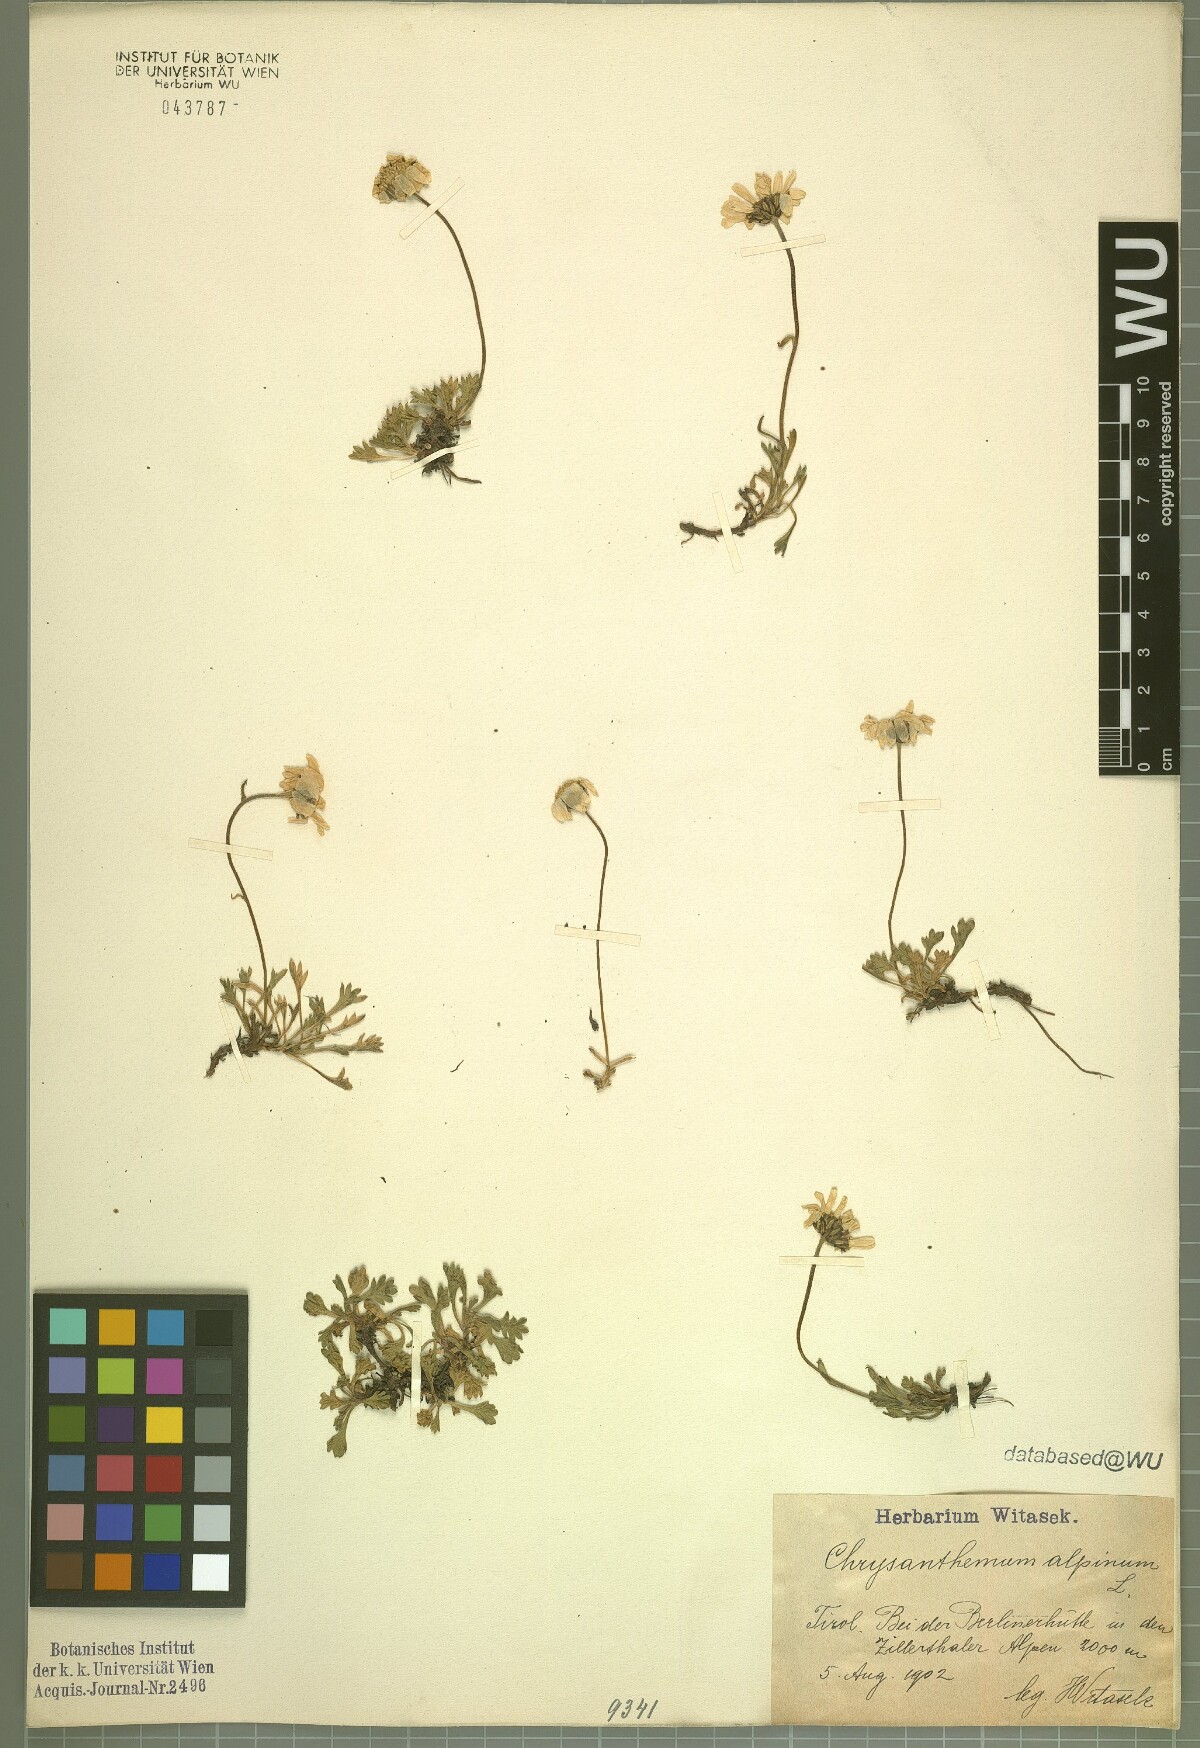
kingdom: Plantae
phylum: Tracheophyta
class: Magnoliopsida
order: Asterales
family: Asteraceae
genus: Leucanthemopsis
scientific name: Leucanthemopsis alpina
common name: Alpine moon daisy
